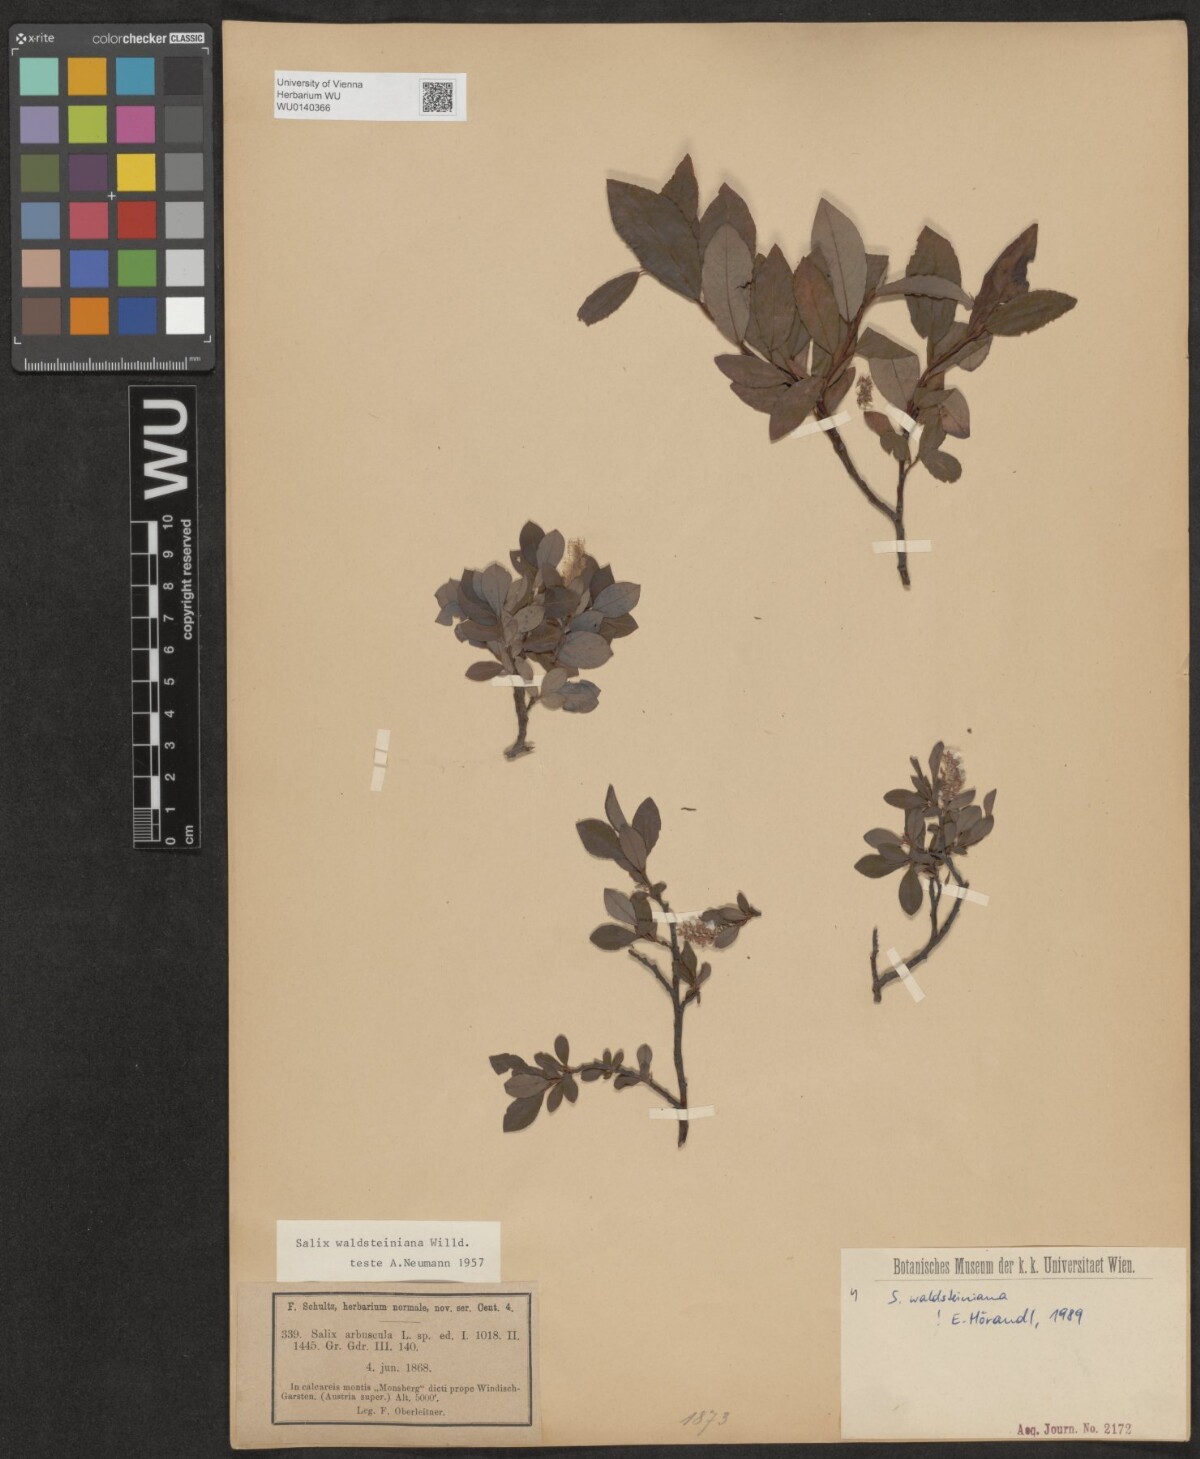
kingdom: Plantae
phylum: Tracheophyta
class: Magnoliopsida
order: Malpighiales
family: Salicaceae
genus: Salix
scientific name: Salix waldsteiniana
